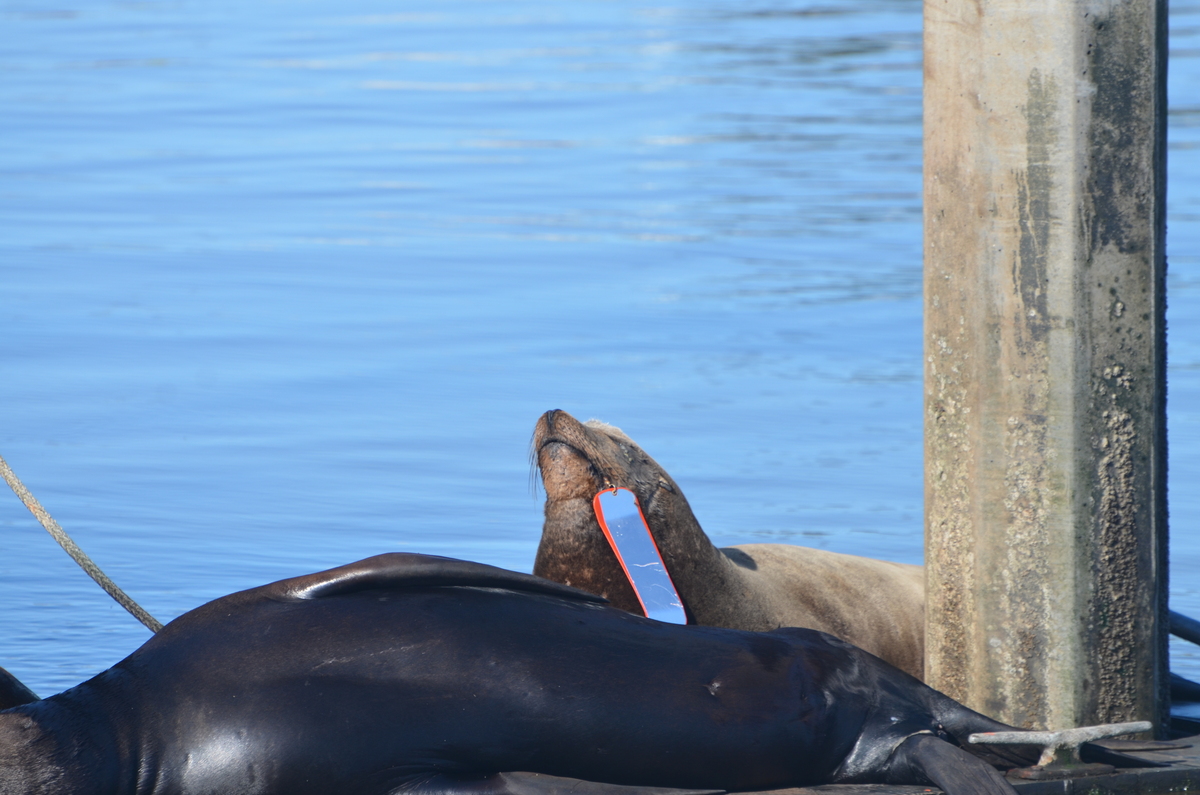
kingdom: Animalia
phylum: Chordata
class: Mammalia
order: Carnivora
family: Otariidae
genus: Zalophus
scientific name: Zalophus californianus
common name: California sea lion
